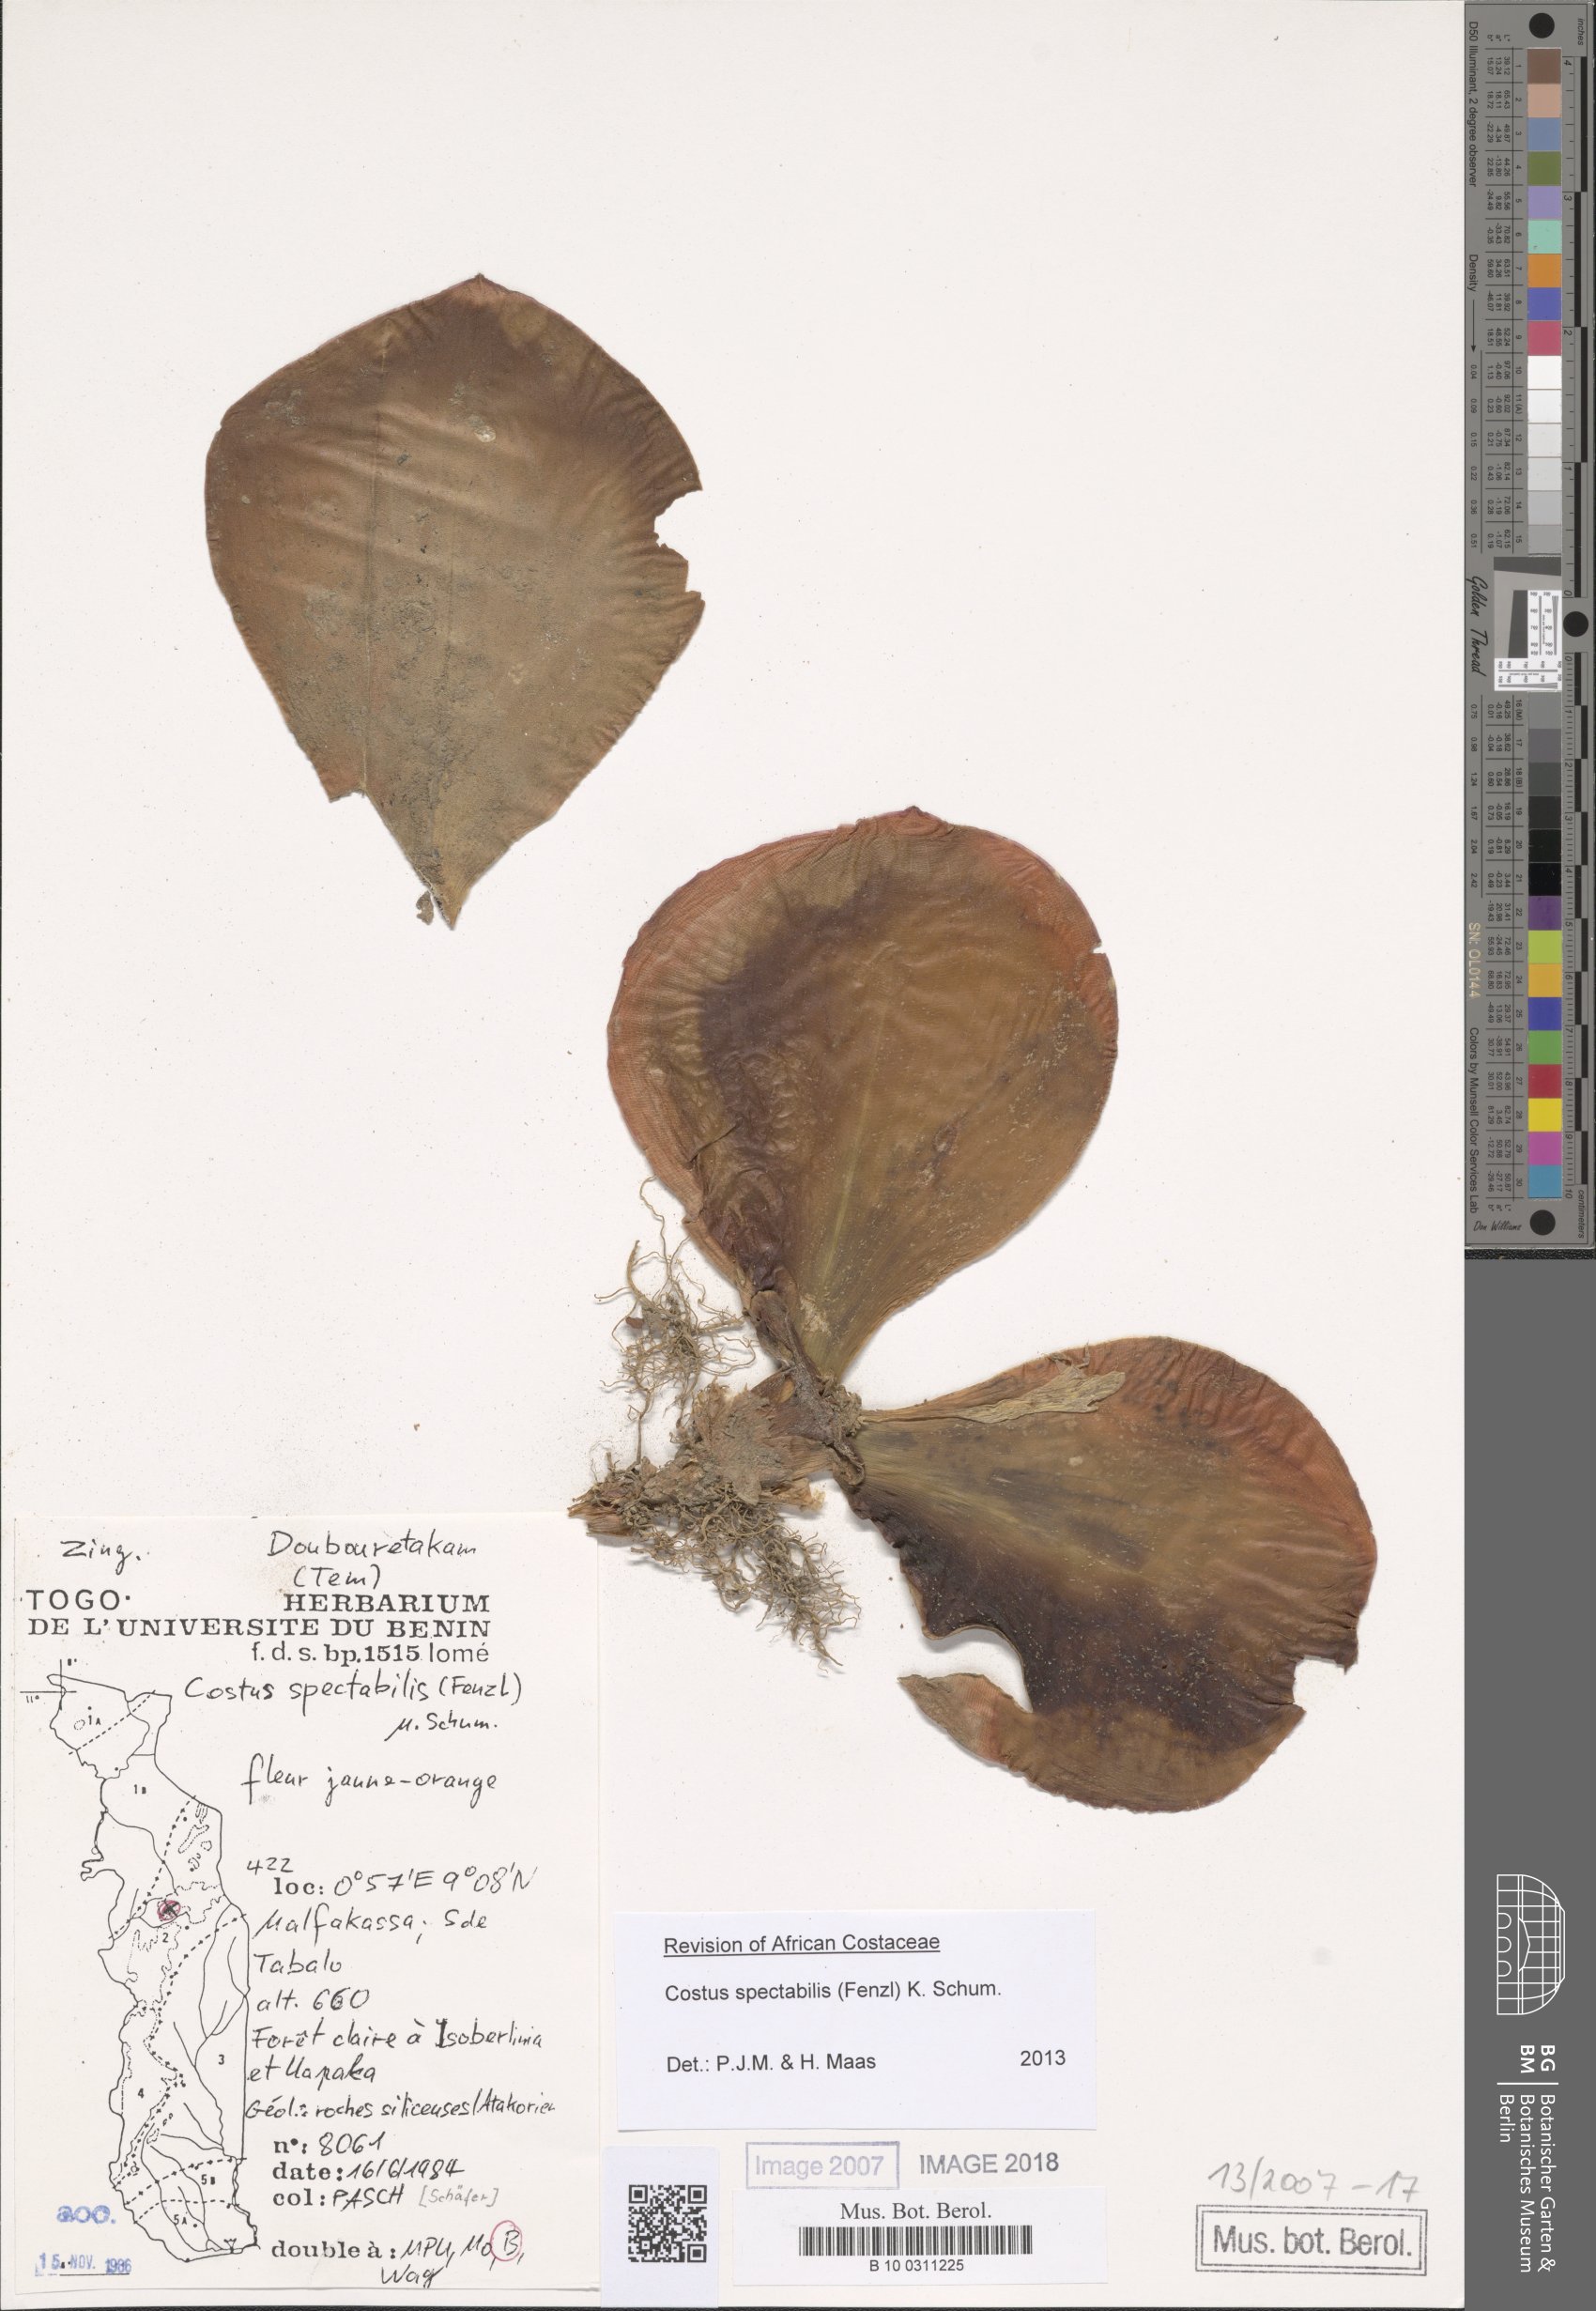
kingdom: Plantae
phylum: Tracheophyta
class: Liliopsida
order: Zingiberales
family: Costaceae
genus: Costus
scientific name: Costus spectabilis
